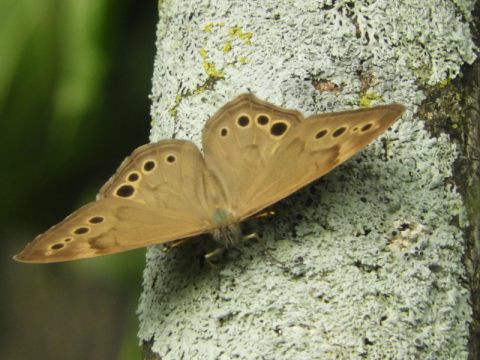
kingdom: Animalia
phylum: Arthropoda
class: Insecta
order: Lepidoptera
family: Nymphalidae
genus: Lethe
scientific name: Lethe anthedon
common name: Northern Pearly-Eye
